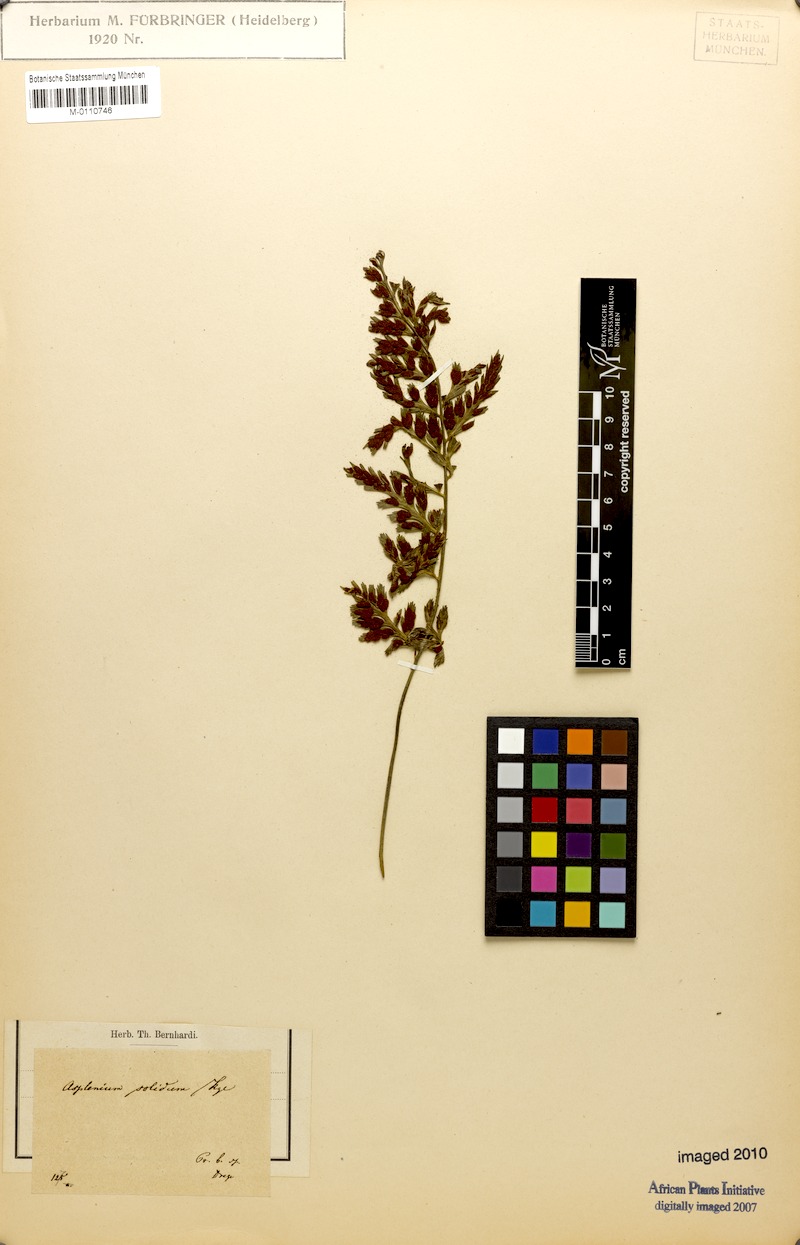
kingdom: Plantae
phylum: Tracheophyta
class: Polypodiopsida
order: Polypodiales
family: Aspleniaceae
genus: Asplenium
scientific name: Asplenium adiantum-nigrum
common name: Black spleenwort
